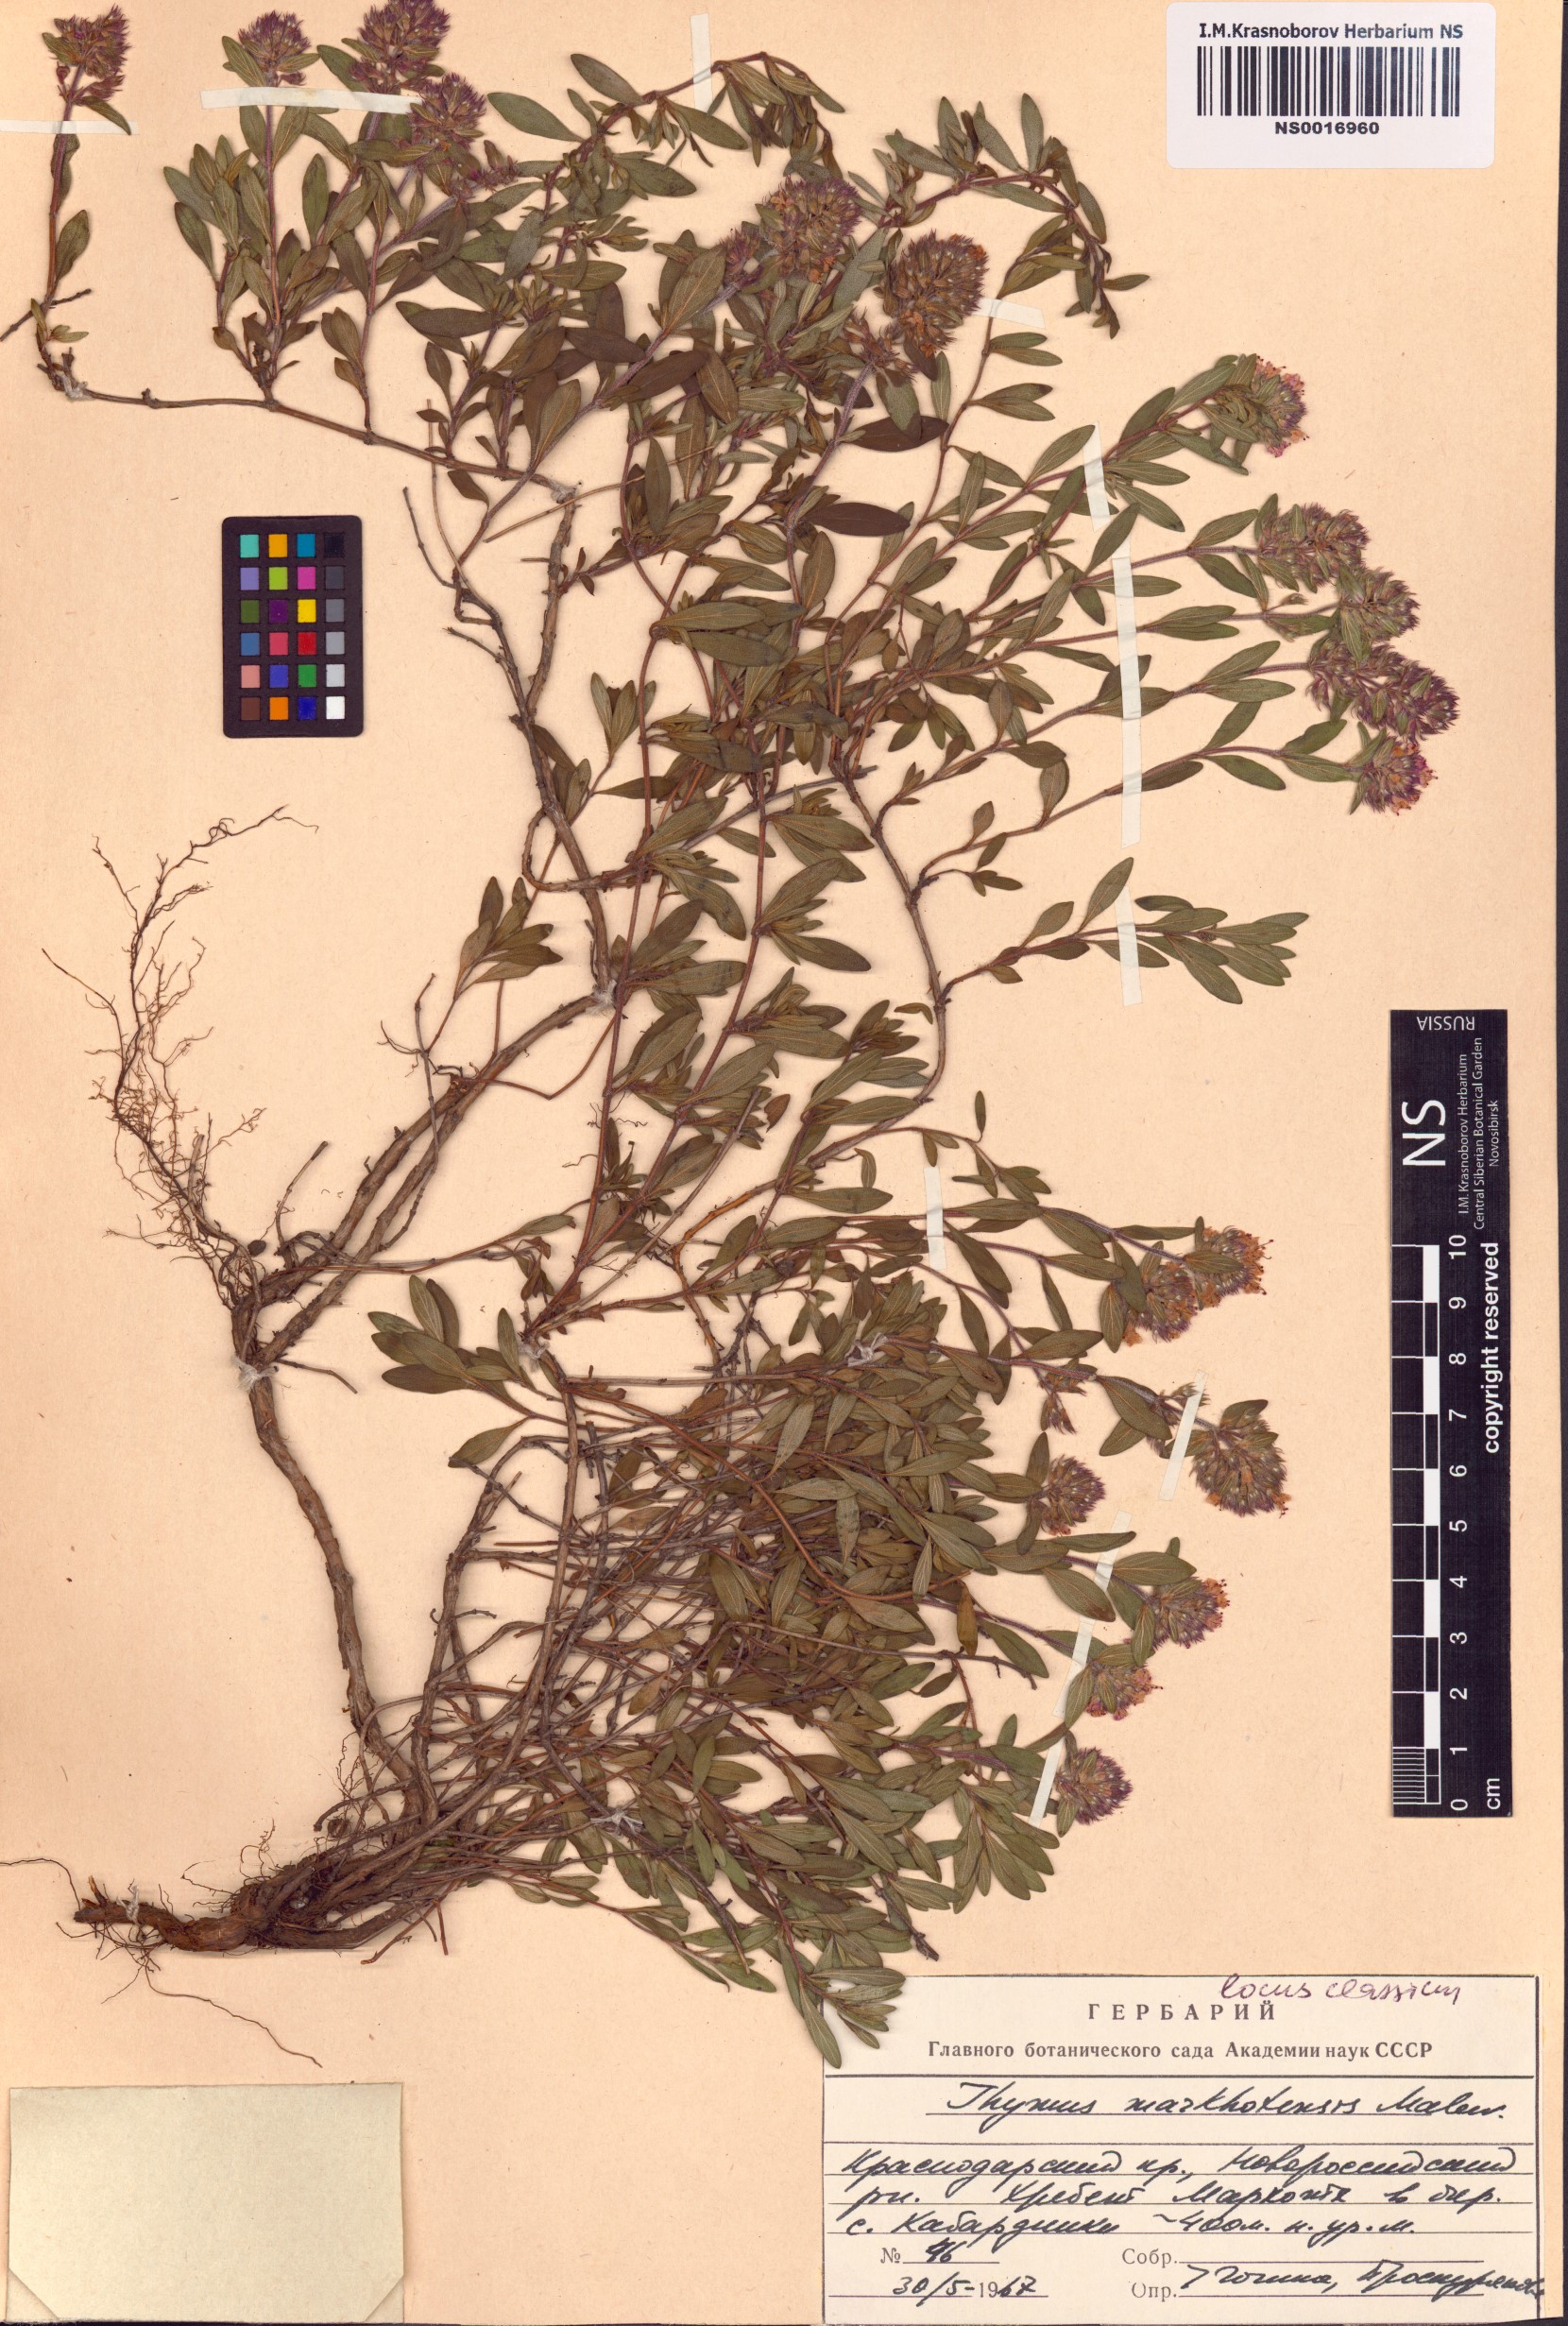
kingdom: Plantae
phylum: Tracheophyta
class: Magnoliopsida
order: Lamiales
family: Lamiaceae
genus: Thymus
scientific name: Thymus markhotensis
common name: Markhotian thyme
